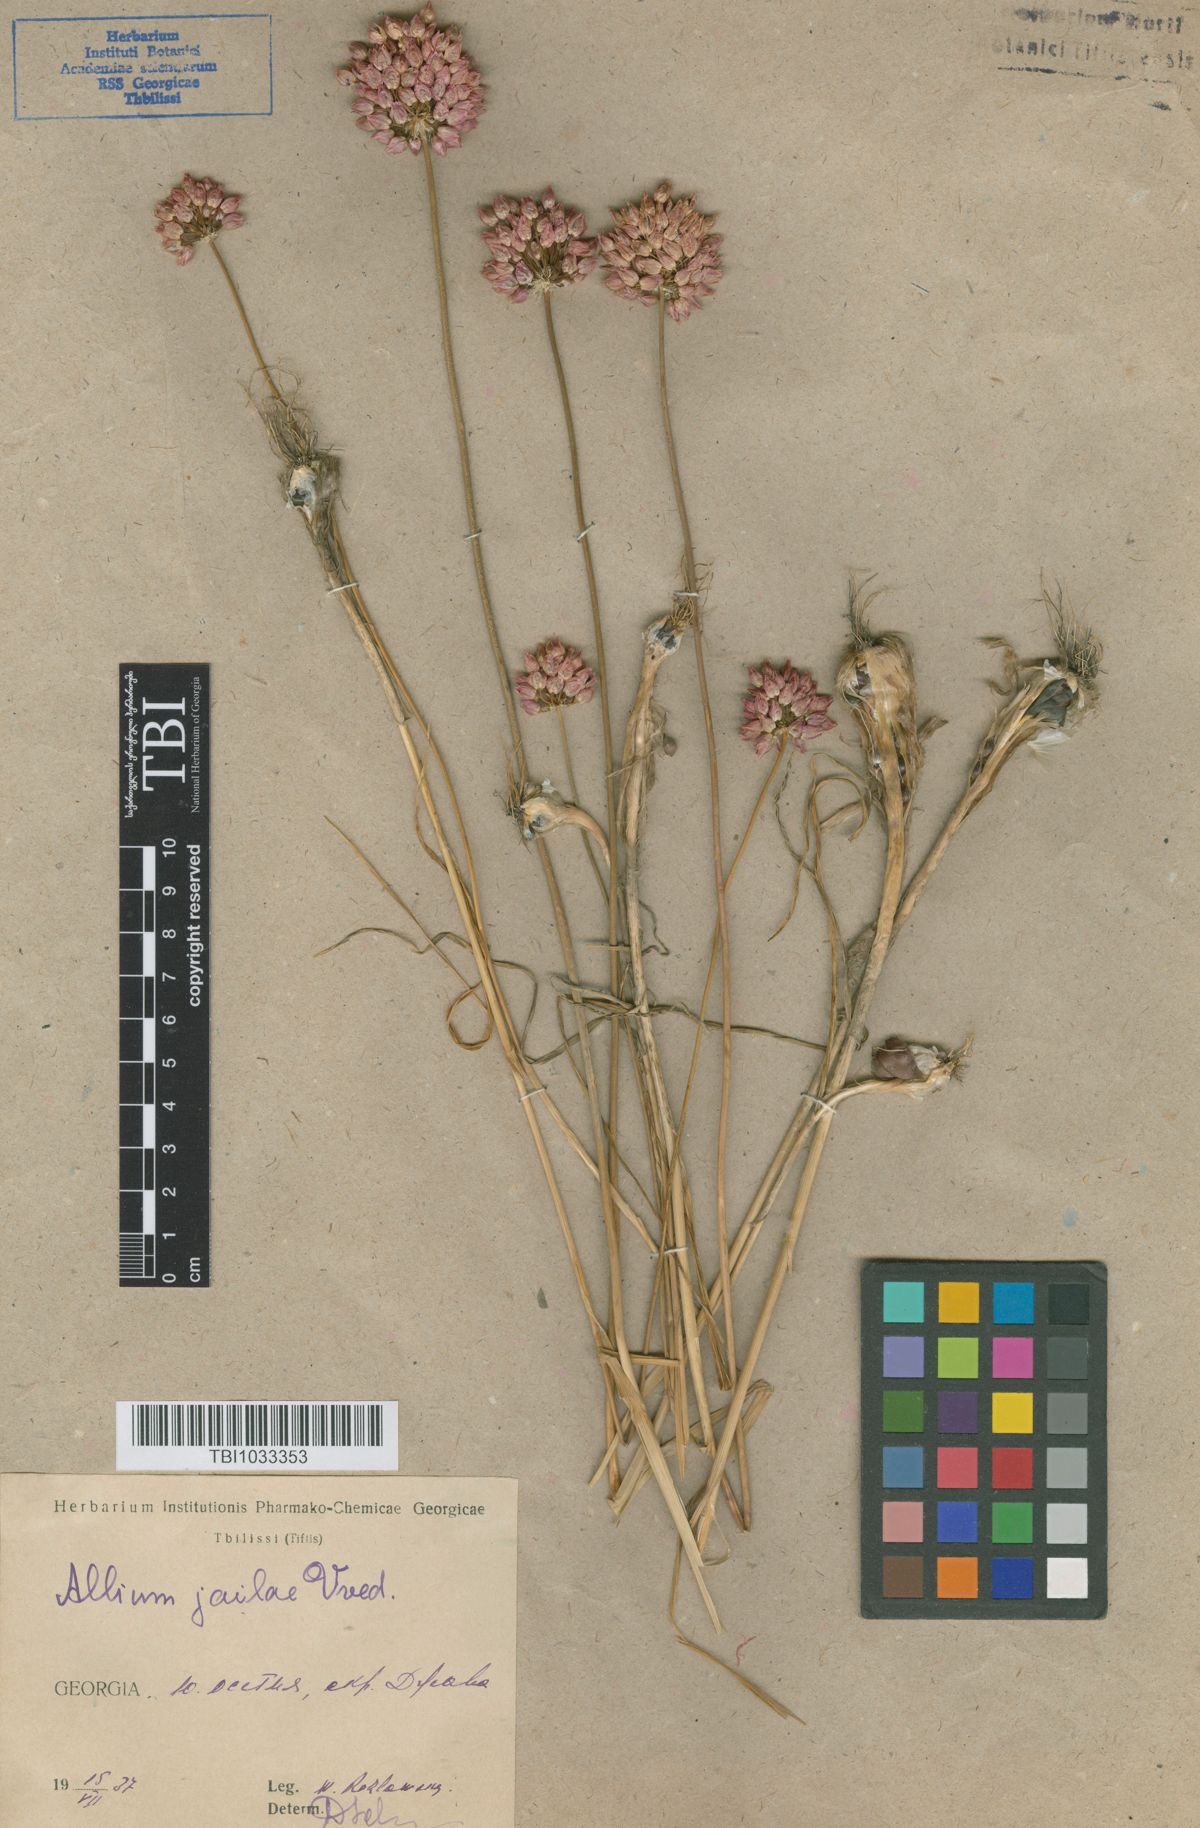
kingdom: Plantae
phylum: Tracheophyta
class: Liliopsida
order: Asparagales
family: Amaryllidaceae
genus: Allium
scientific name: Allium rotundum
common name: Sand leek
